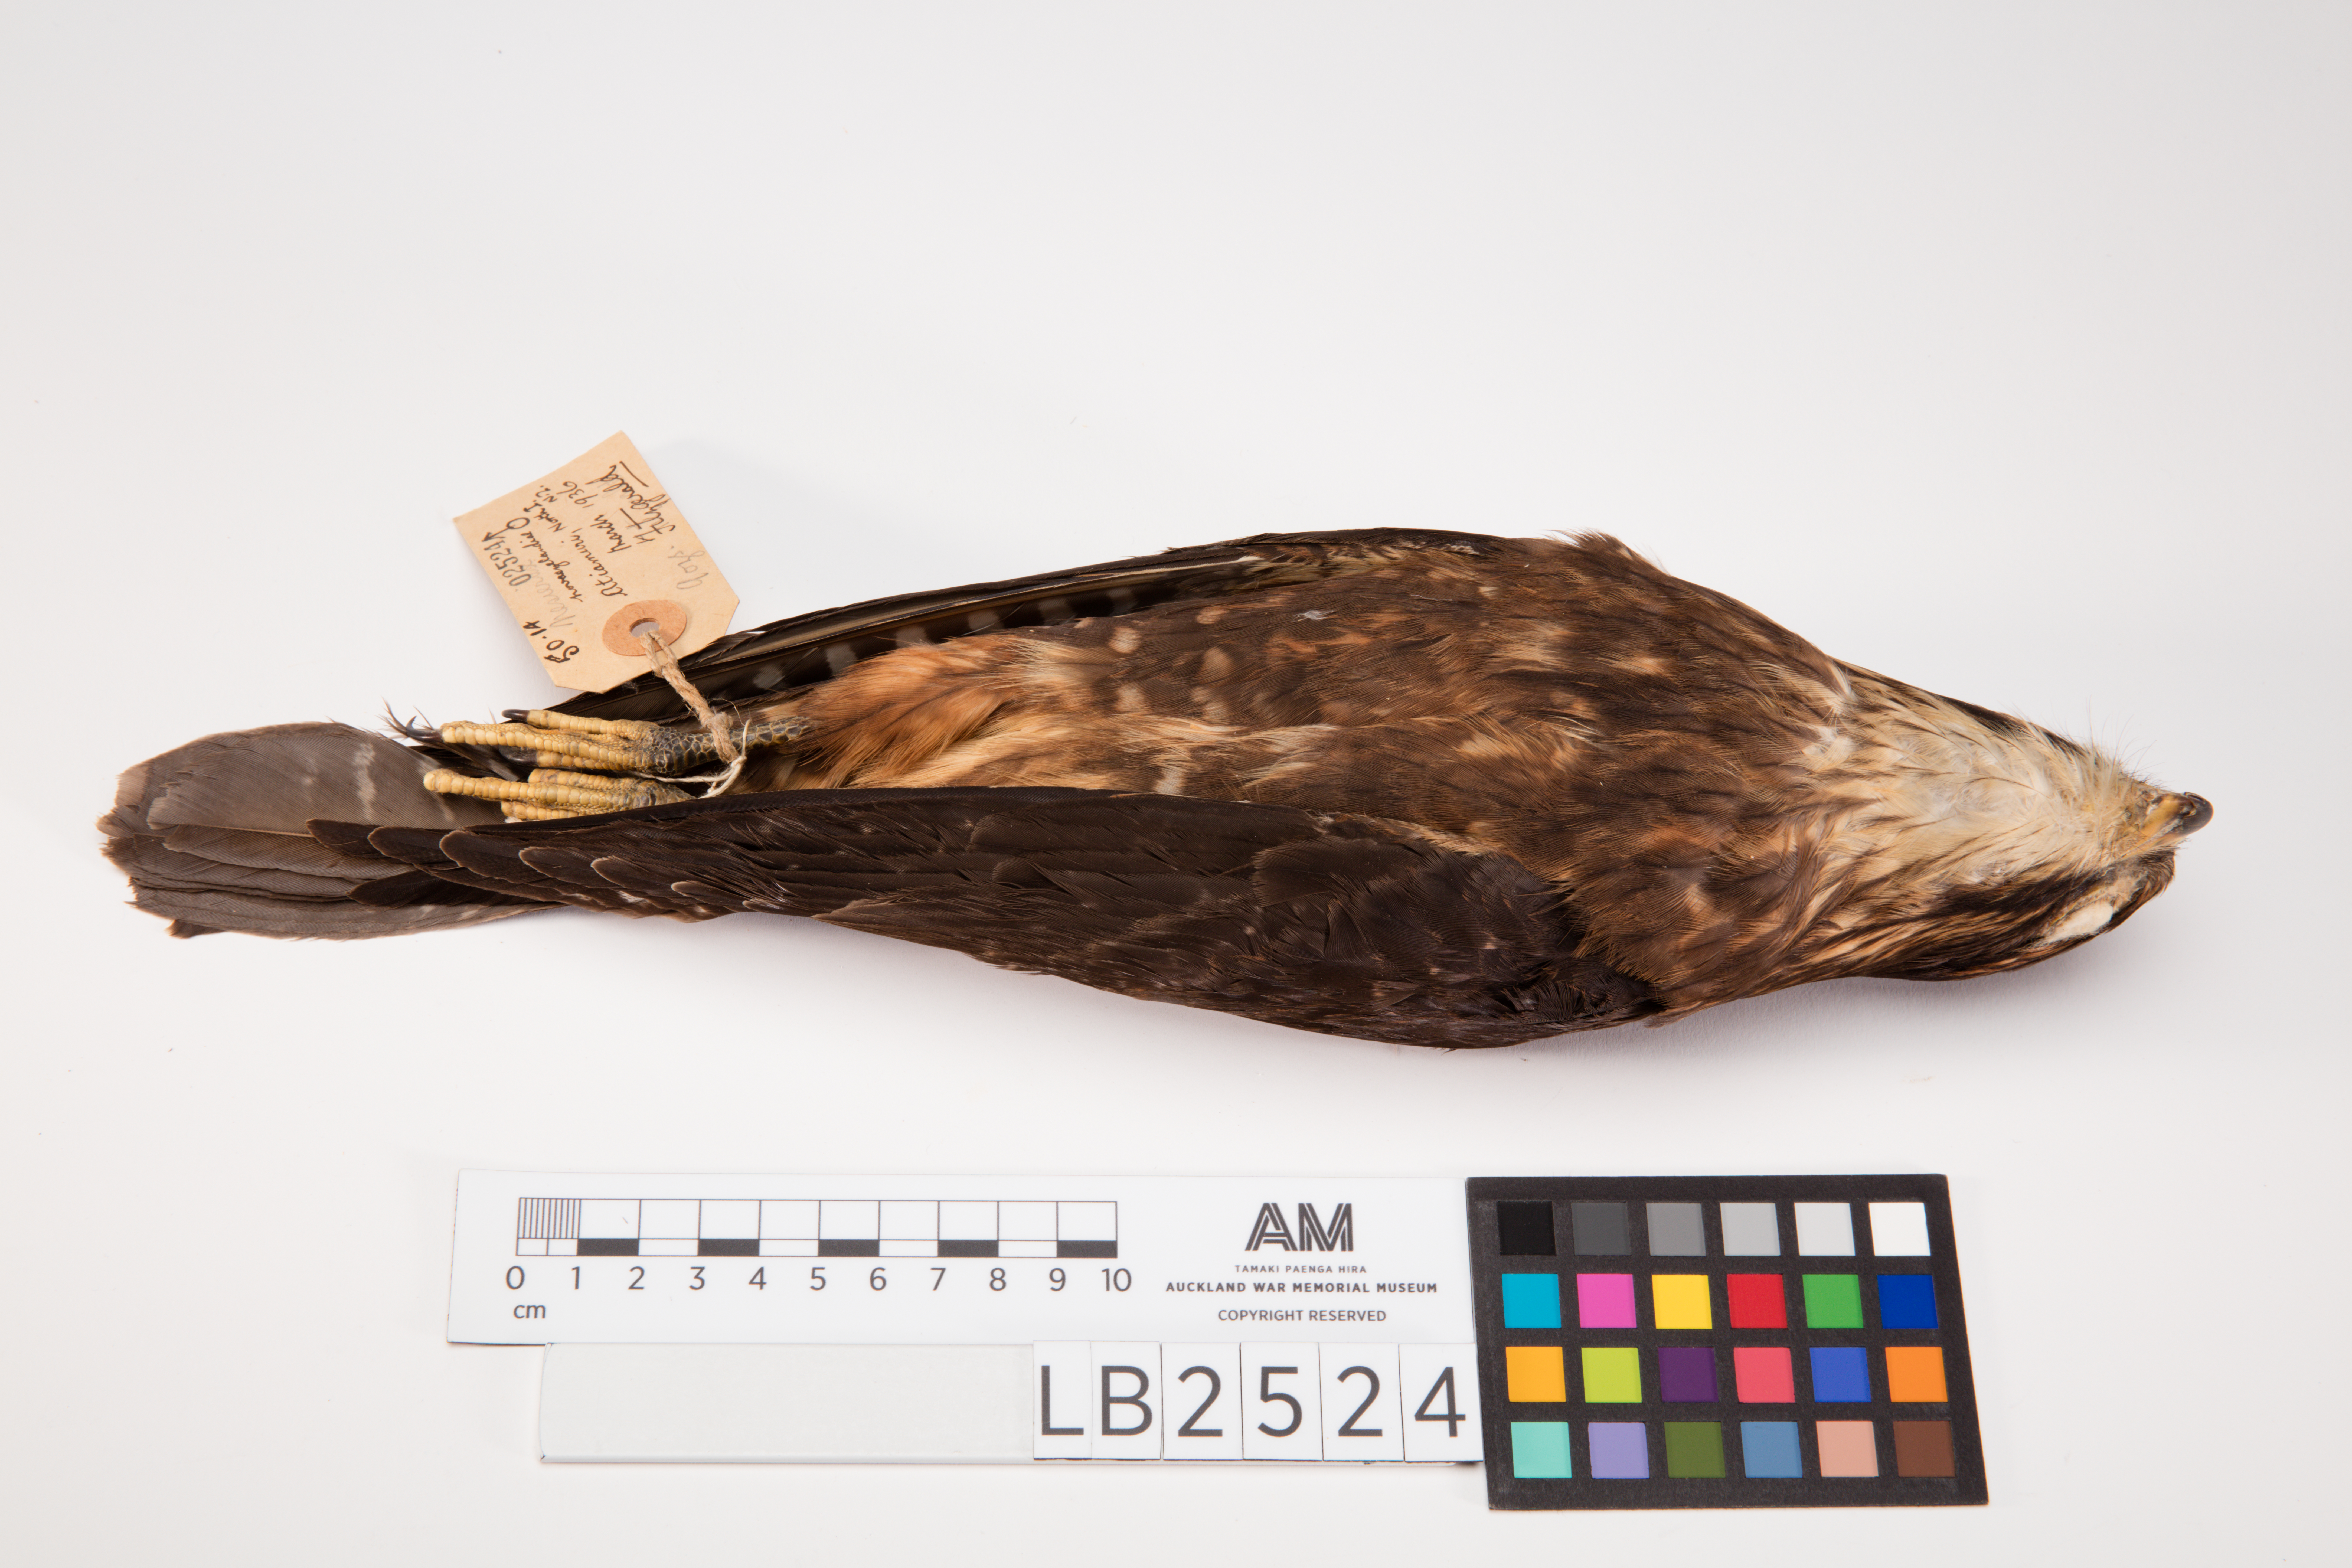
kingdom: Animalia
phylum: Chordata
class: Aves
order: Falconiformes
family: Falconidae
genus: Falco
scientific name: Falco novaeseelandiae
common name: New zealand falcon
